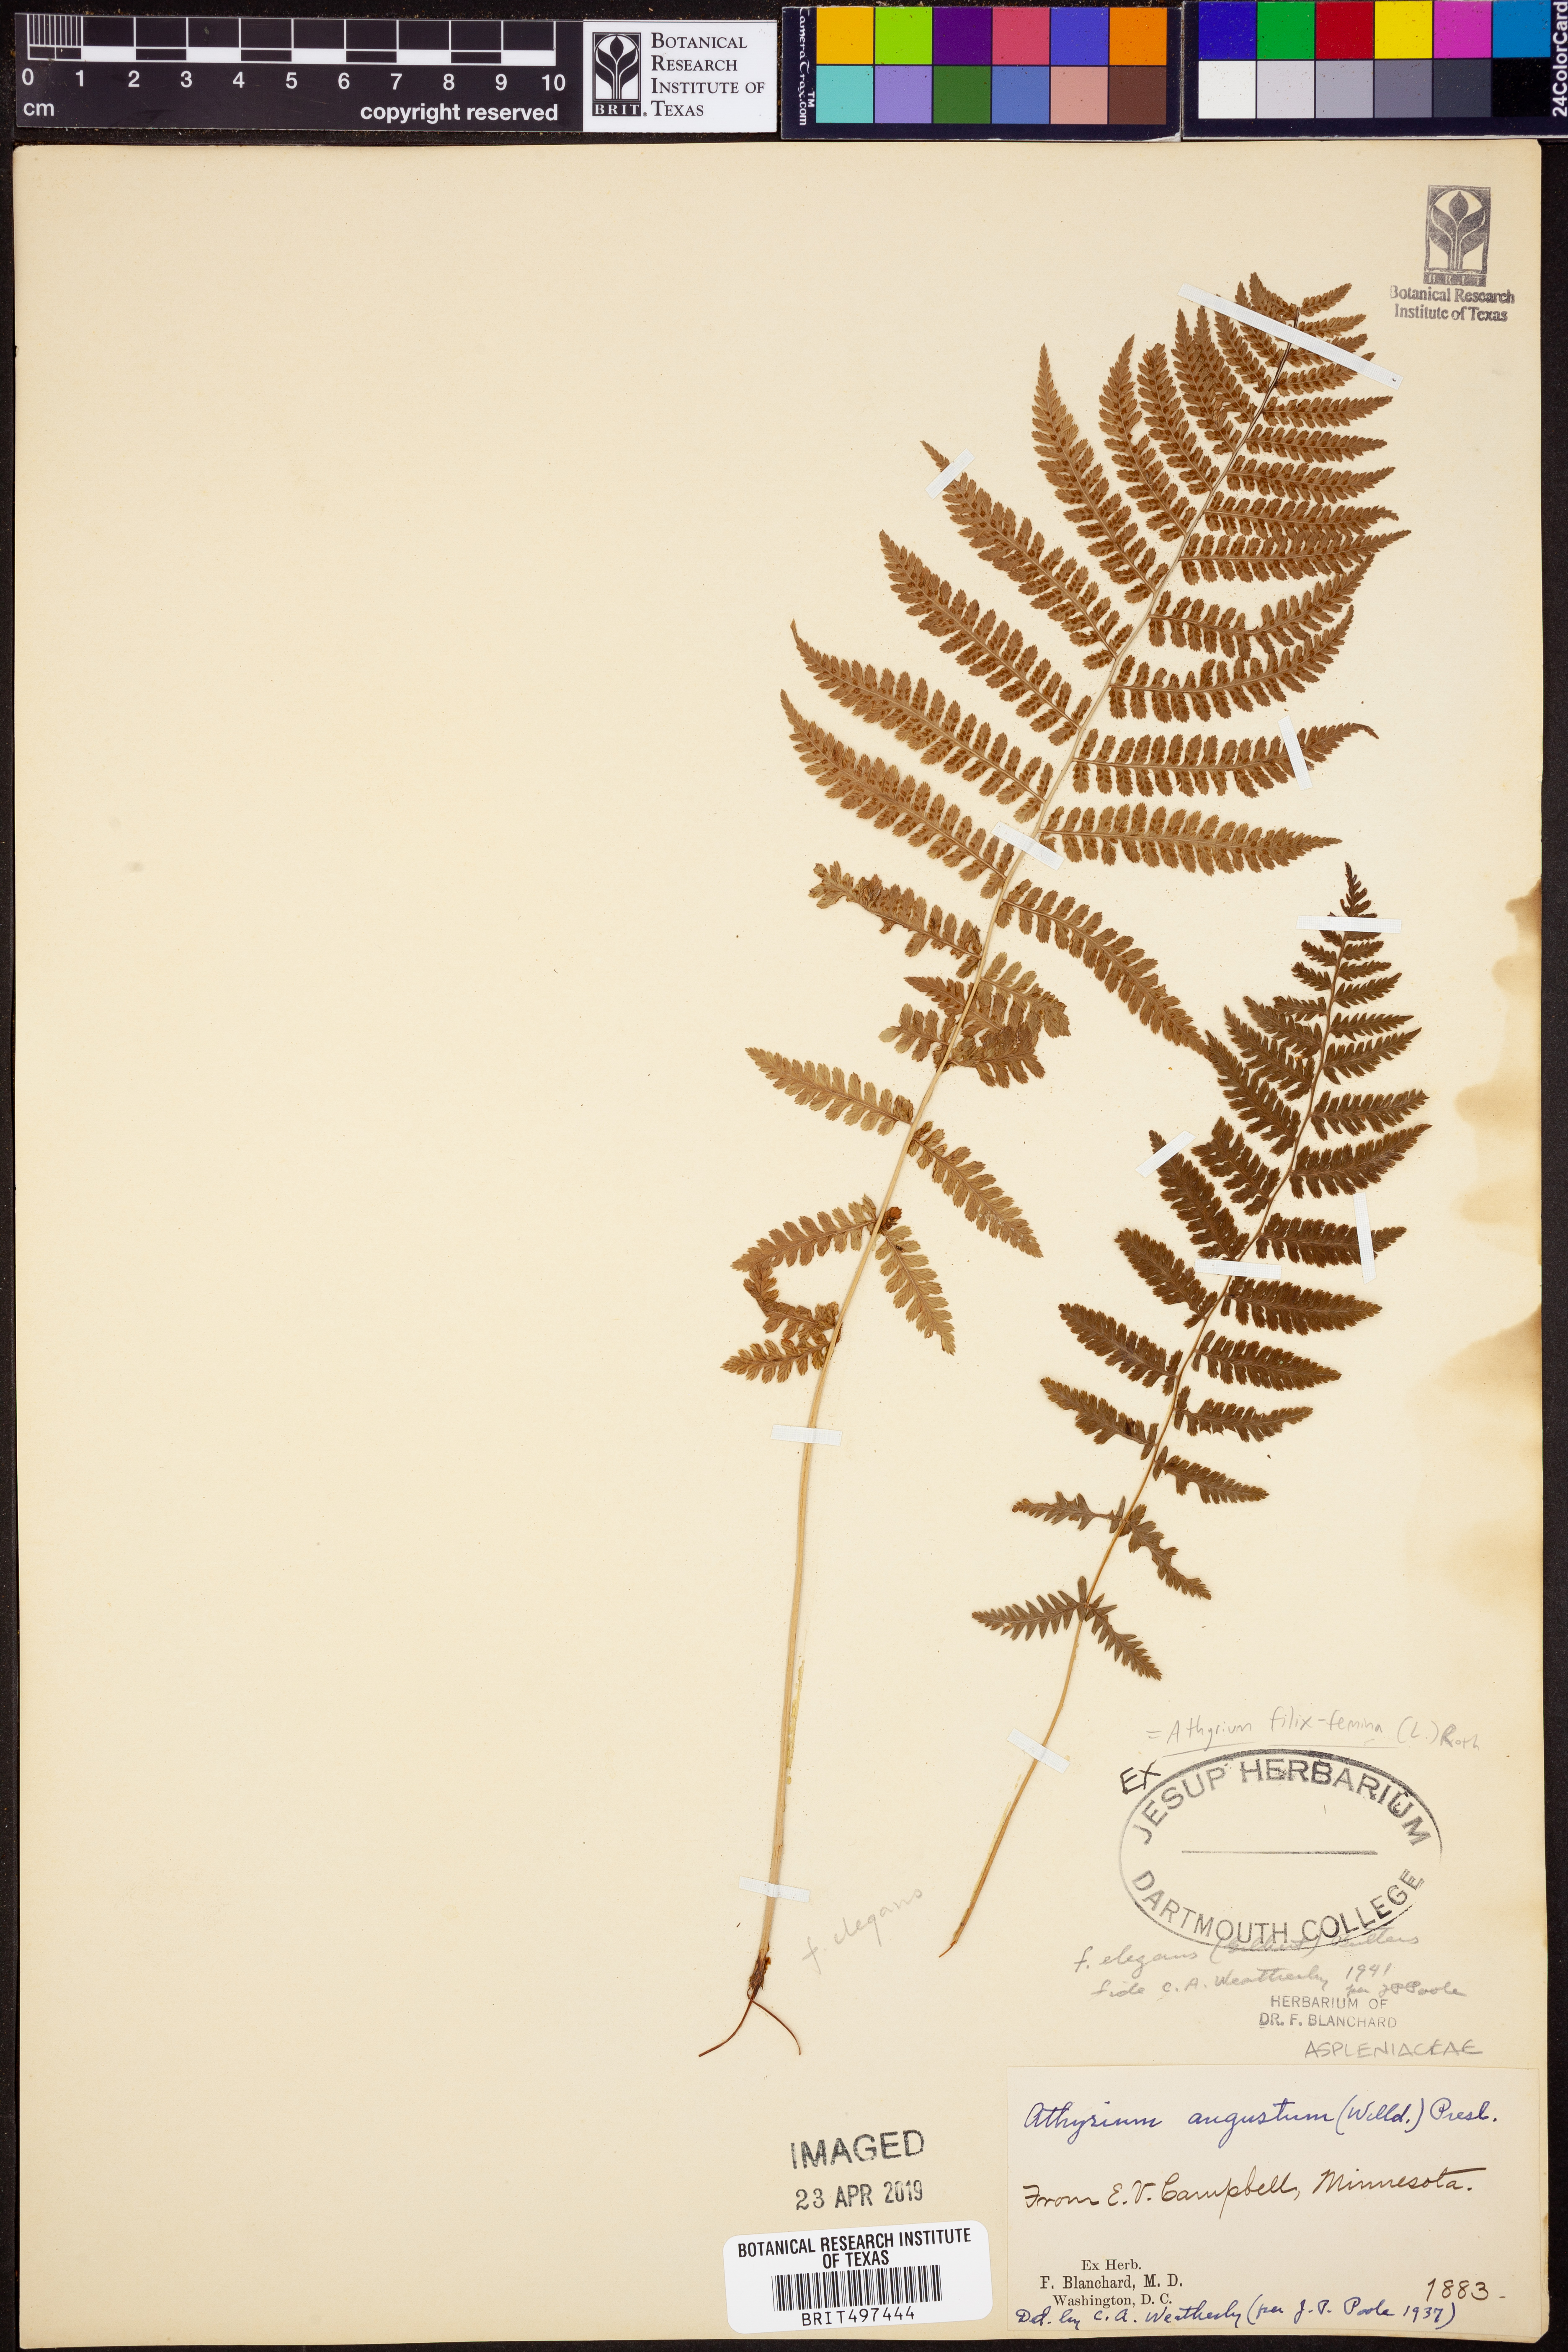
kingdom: Plantae
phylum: Tracheophyta
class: Polypodiopsida
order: Polypodiales
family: Athyriaceae
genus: Athyrium
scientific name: Athyrium filix-femina
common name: Lady fern
